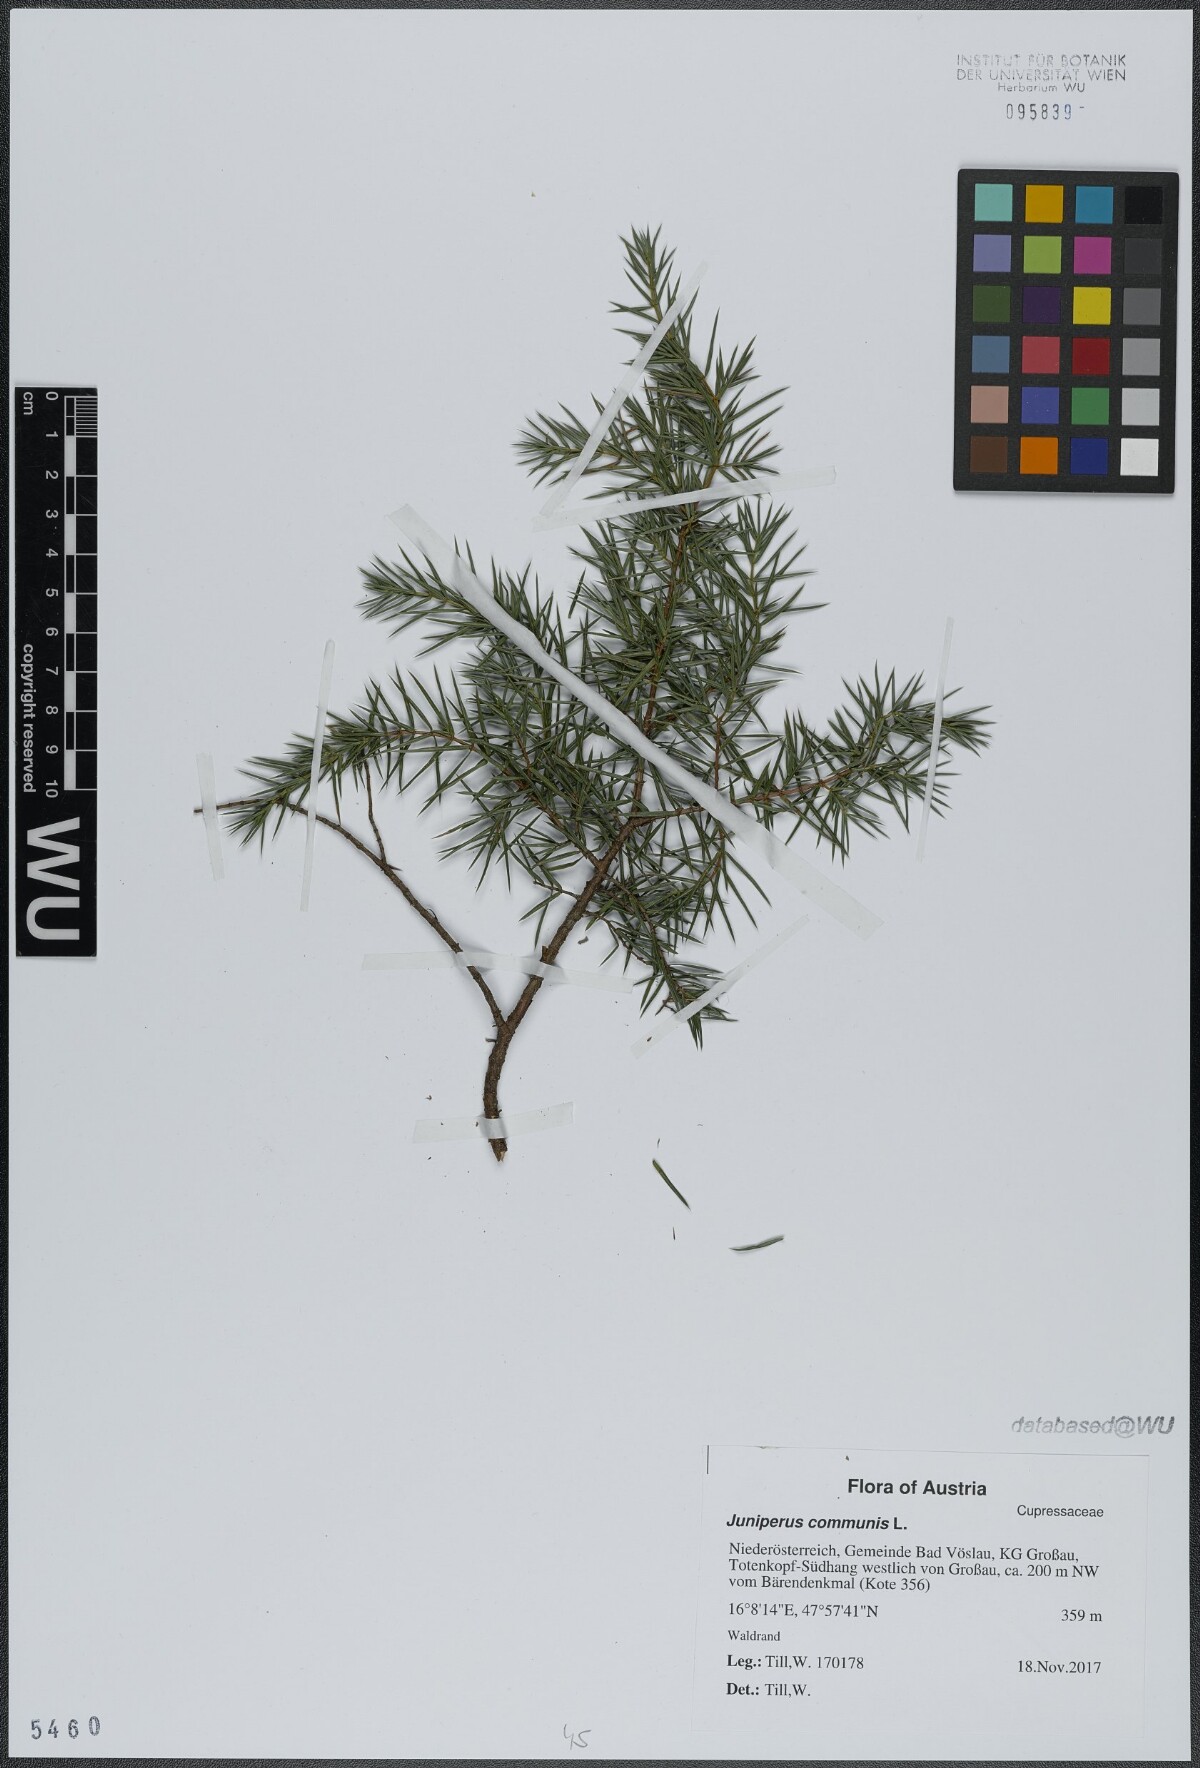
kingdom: Plantae
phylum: Tracheophyta
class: Pinopsida
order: Pinales
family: Cupressaceae
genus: Juniperus
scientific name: Juniperus communis
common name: Common juniper
